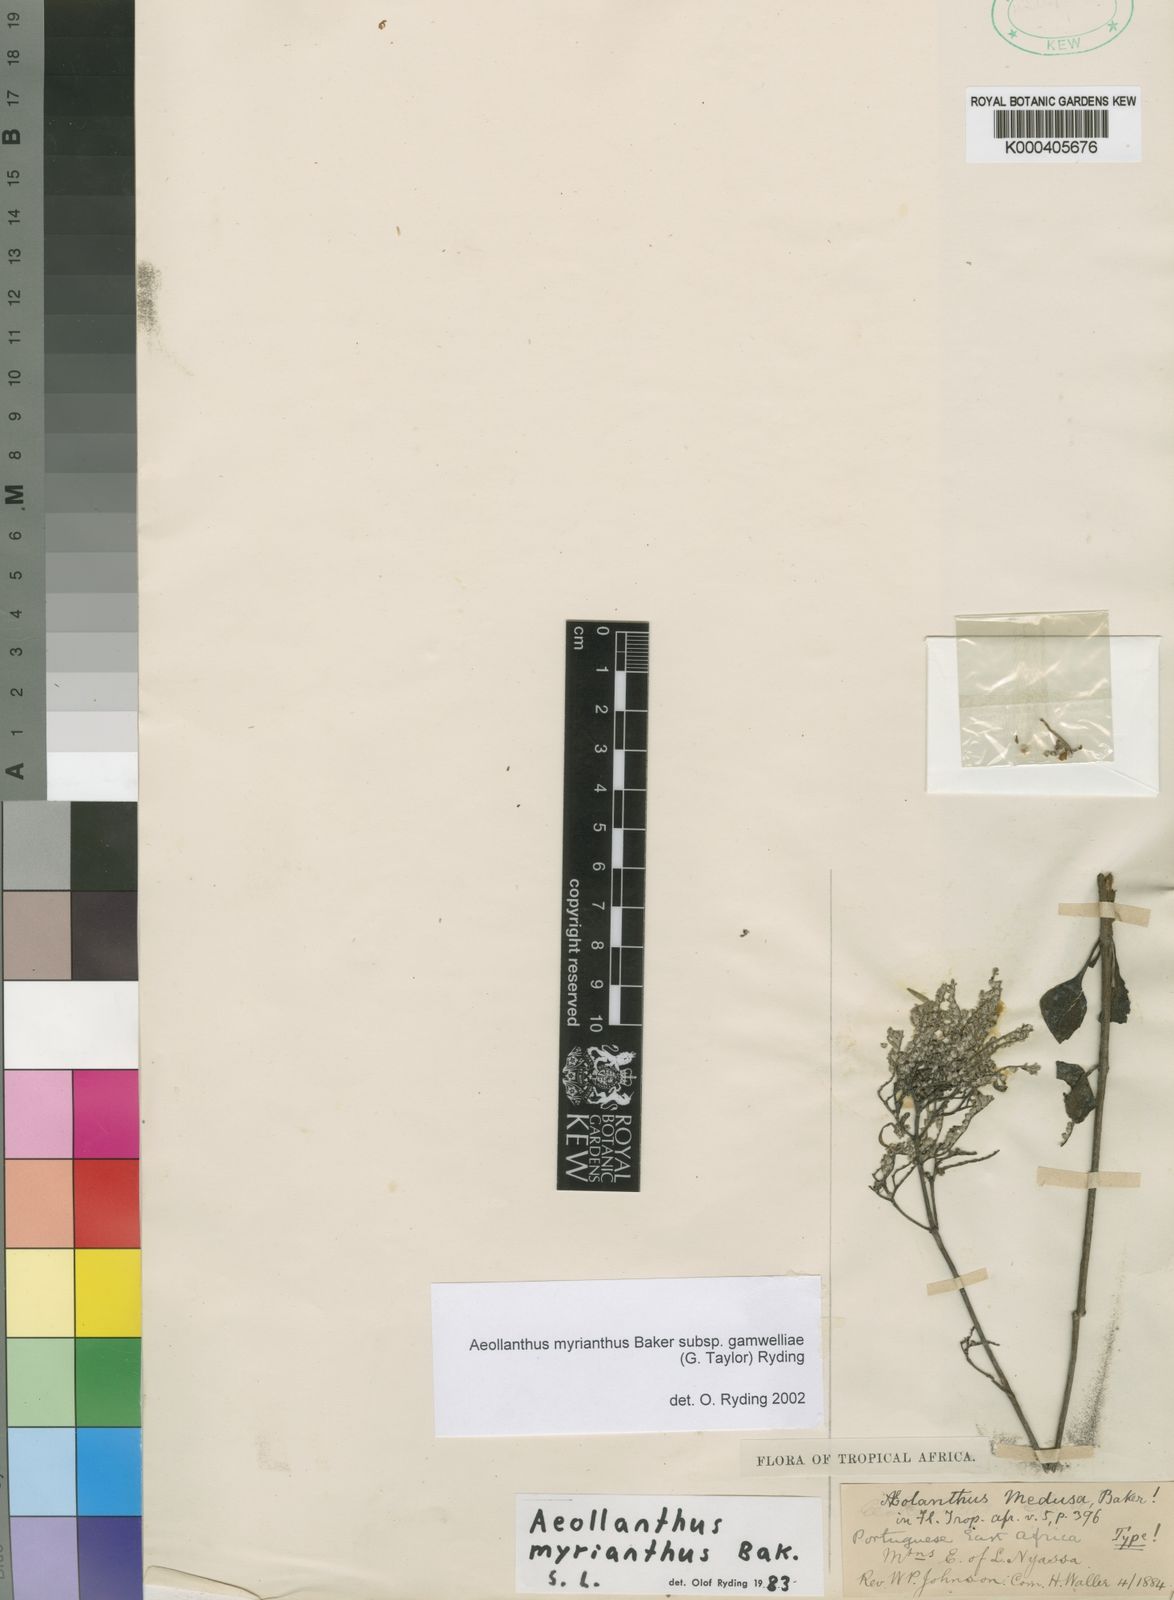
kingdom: Plantae
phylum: Tracheophyta
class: Magnoliopsida
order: Lamiales
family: Lamiaceae
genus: Aeollanthus
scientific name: Aeollanthus myrianthus
